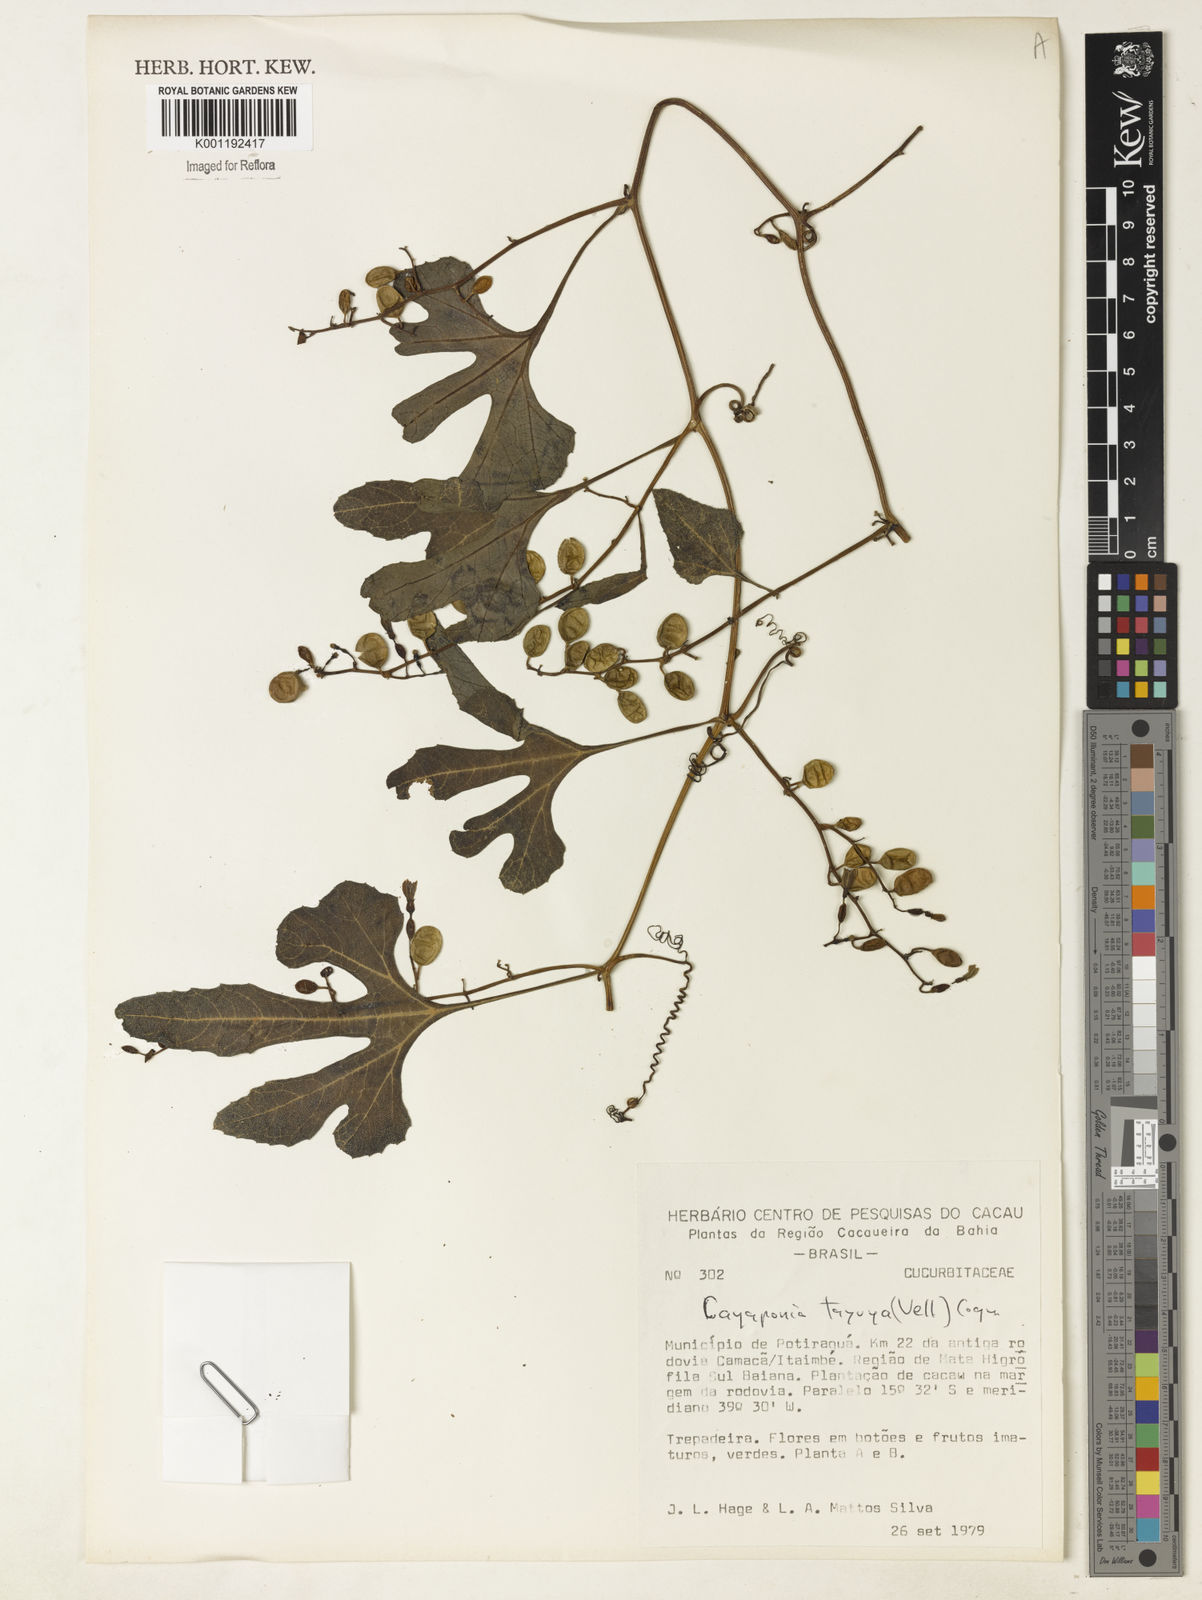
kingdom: Plantae
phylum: Tracheophyta
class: Magnoliopsida
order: Cucurbitales
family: Cucurbitaceae
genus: Cayaponia
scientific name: Cayaponia tayuya
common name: Tayuya
